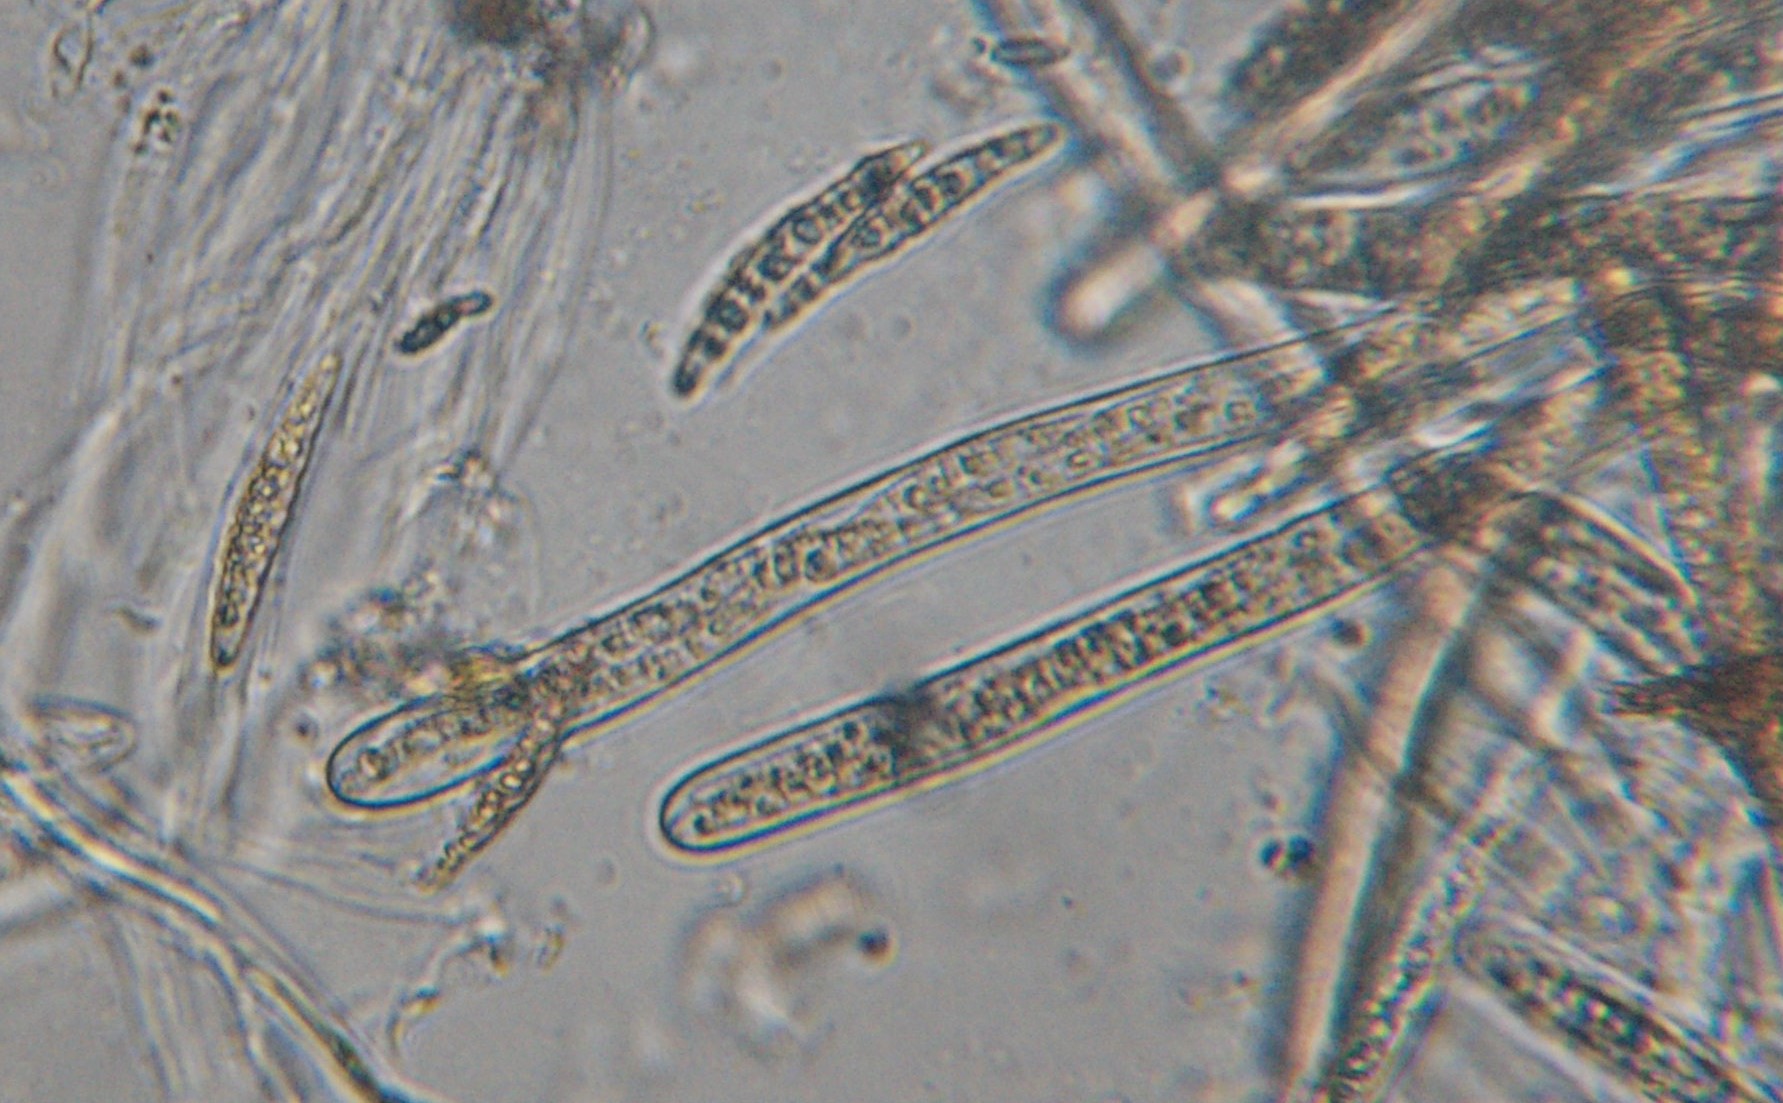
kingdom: Fungi
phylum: Ascomycota
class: Dothideomycetes
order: Pleosporales
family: Leptosphaeriaceae
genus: Leptosphaeria
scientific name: Leptosphaeria acuta
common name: spids kulkegle
